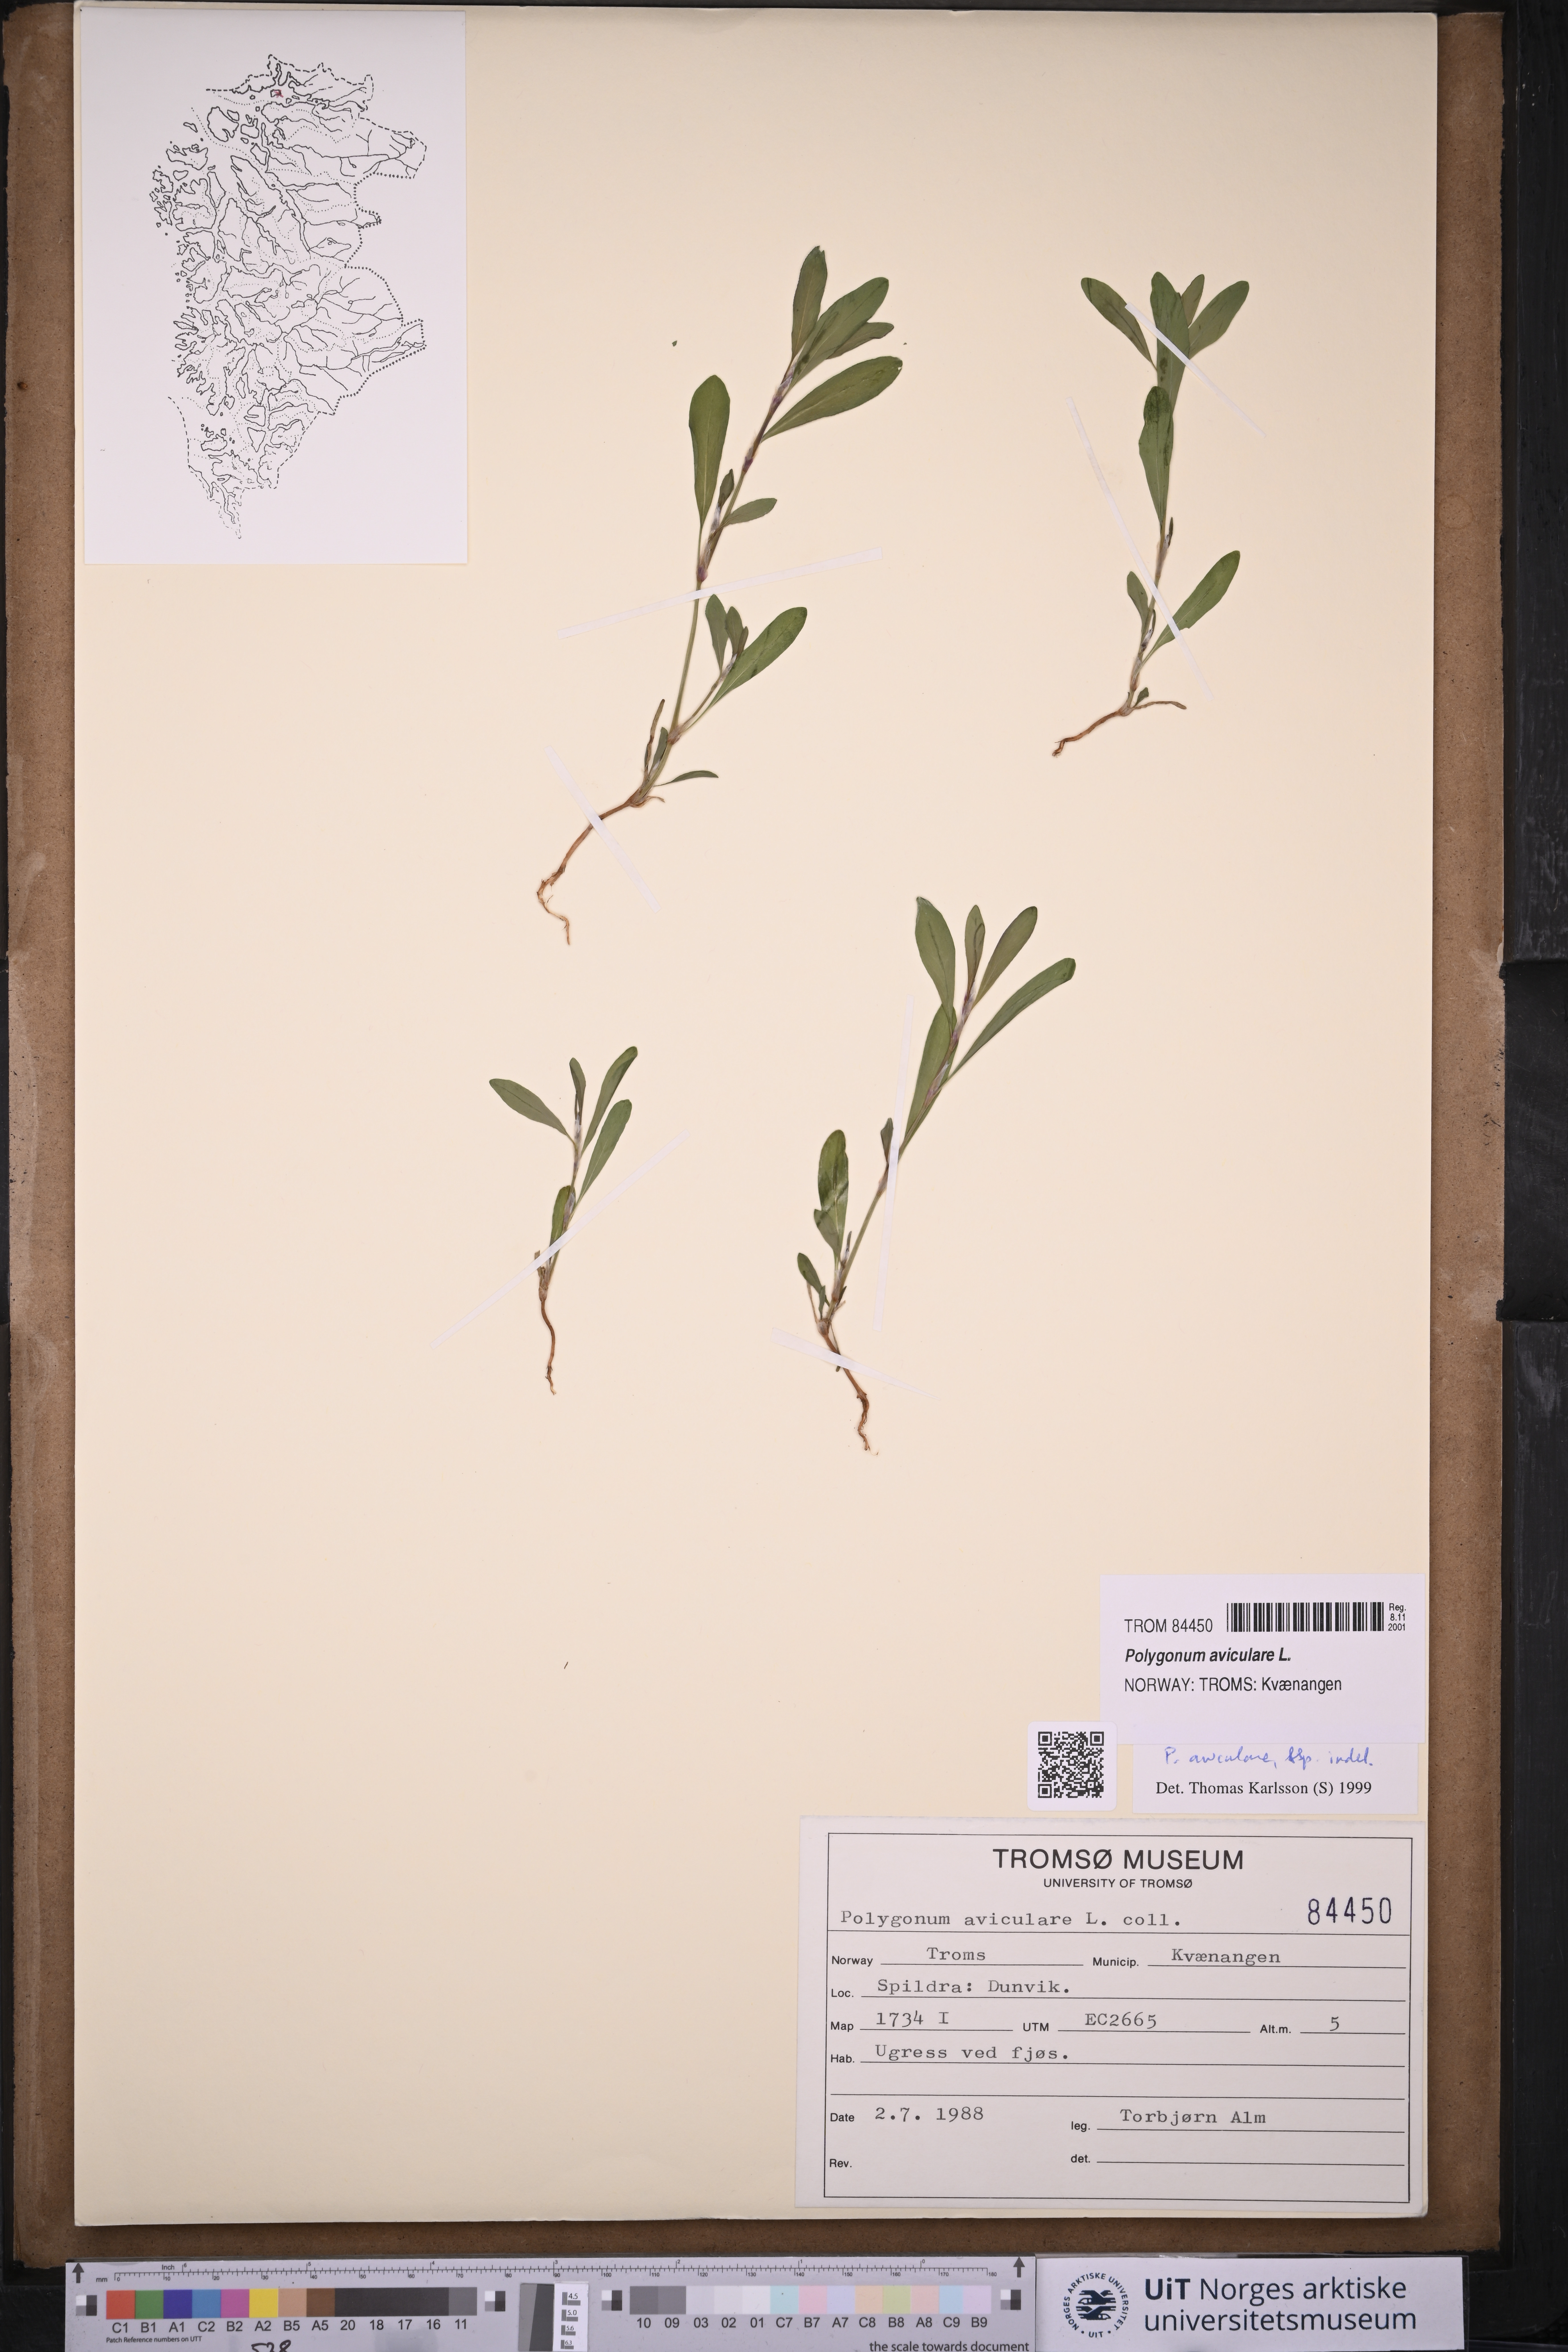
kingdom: Plantae
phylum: Tracheophyta
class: Magnoliopsida
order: Caryophyllales
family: Polygonaceae
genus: Polygonum
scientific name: Polygonum aviculare
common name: Prostrate knotweed
